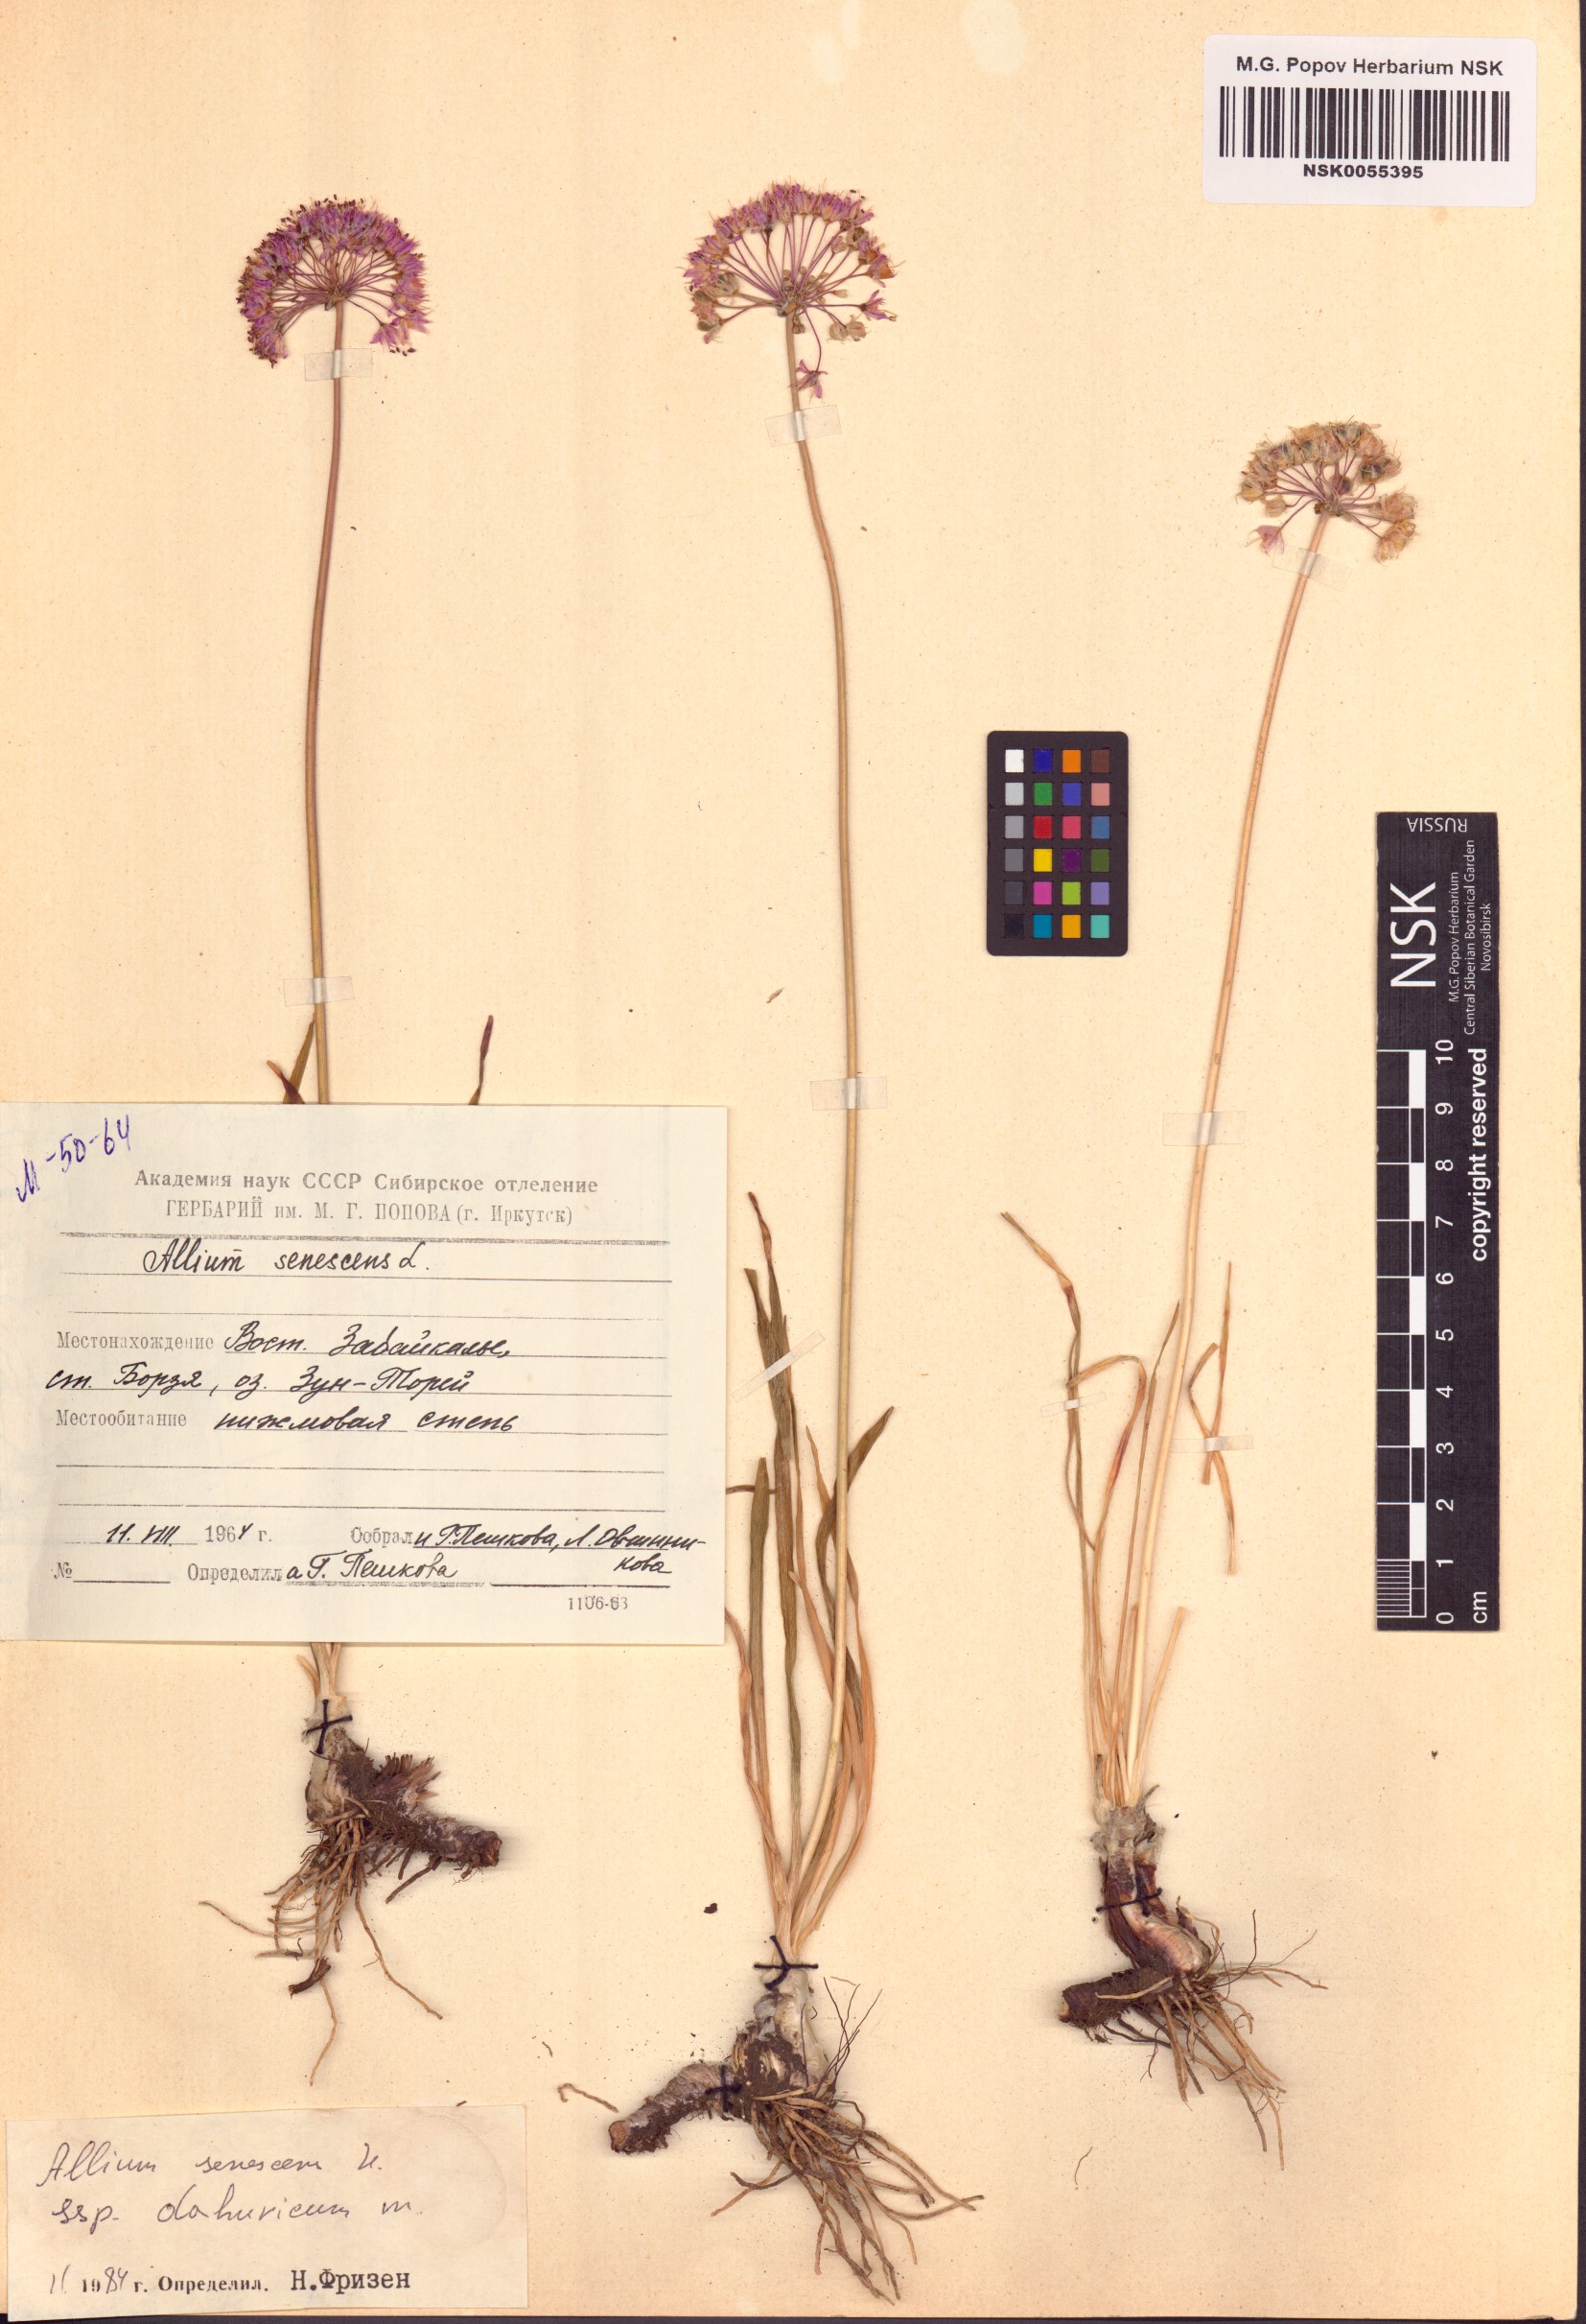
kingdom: Plantae
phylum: Tracheophyta
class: Liliopsida
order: Asparagales
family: Amaryllidaceae
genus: Allium
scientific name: Allium senescens
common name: German garlic
